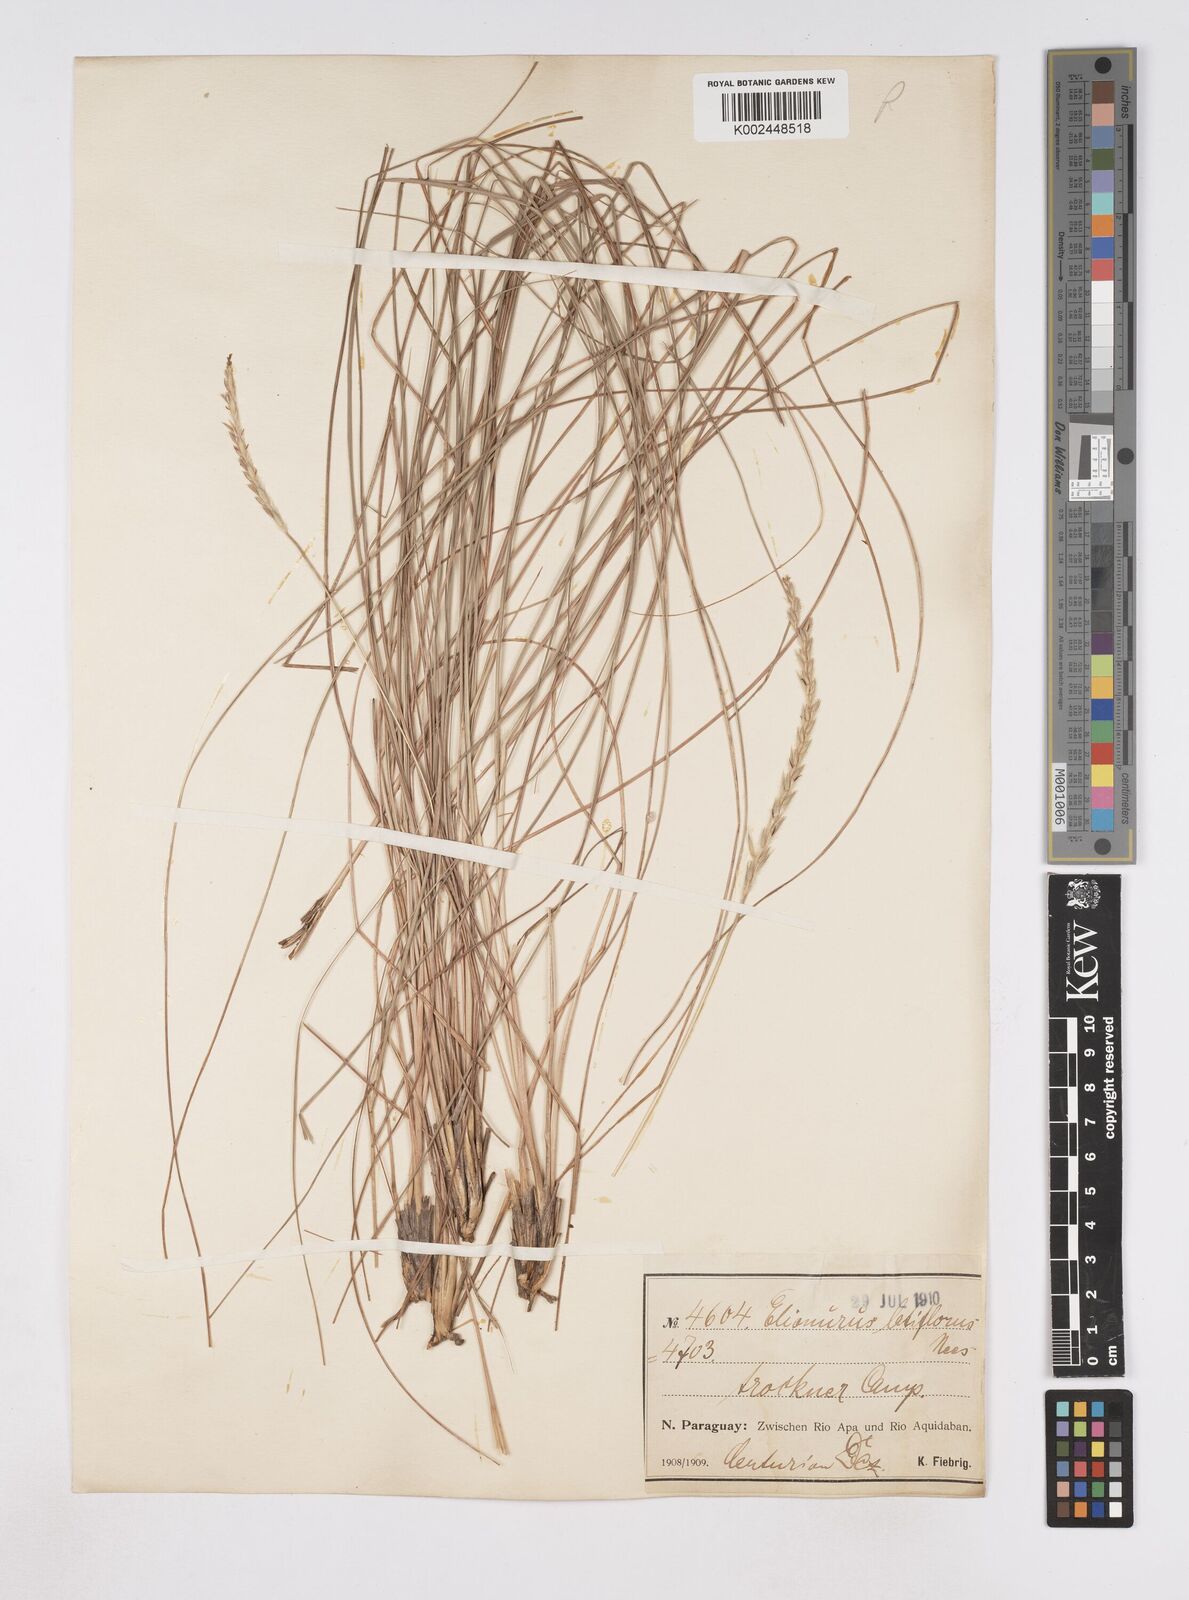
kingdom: Plantae
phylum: Tracheophyta
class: Liliopsida
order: Poales
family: Poaceae
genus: Elionurus
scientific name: Elionurus muticus
